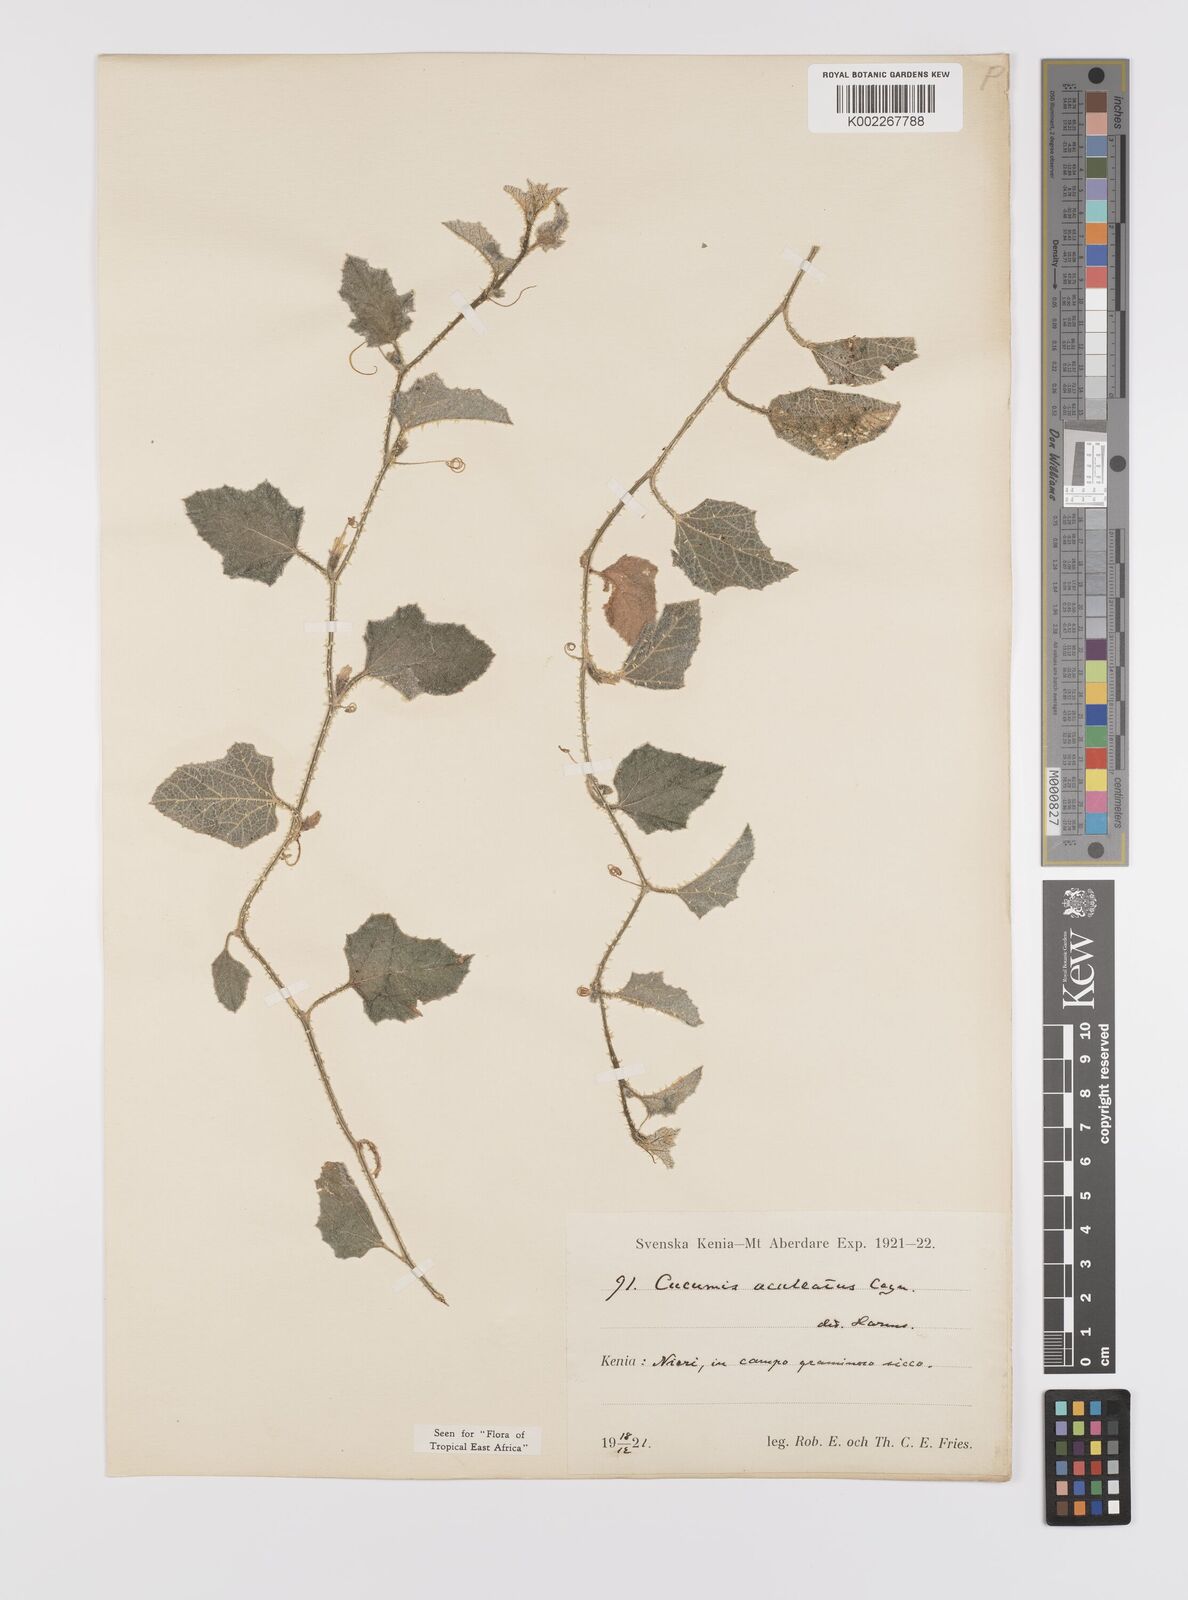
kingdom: Plantae
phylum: Tracheophyta
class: Magnoliopsida
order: Cucurbitales
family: Cucurbitaceae
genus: Cucumis
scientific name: Cucumis aculeatus
